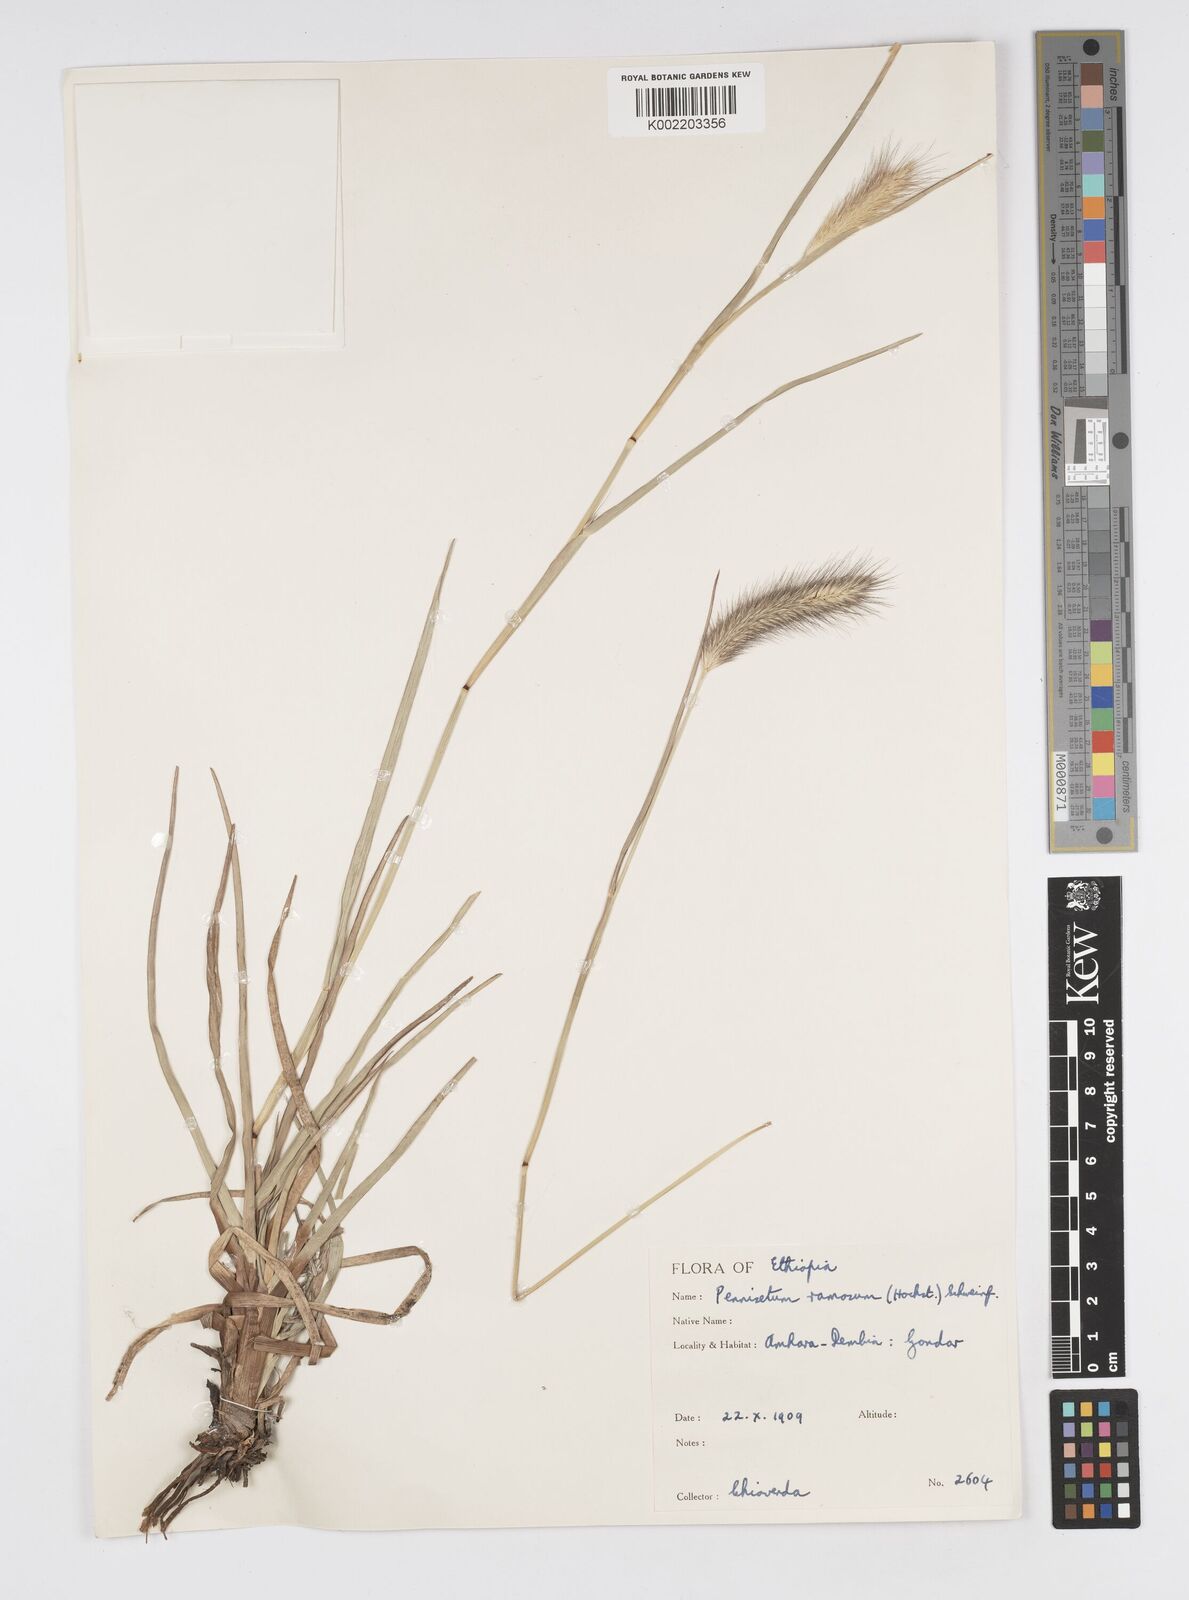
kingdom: Plantae
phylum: Tracheophyta
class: Liliopsida
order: Poales
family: Poaceae
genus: Cenchrus
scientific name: Cenchrus ramosus
